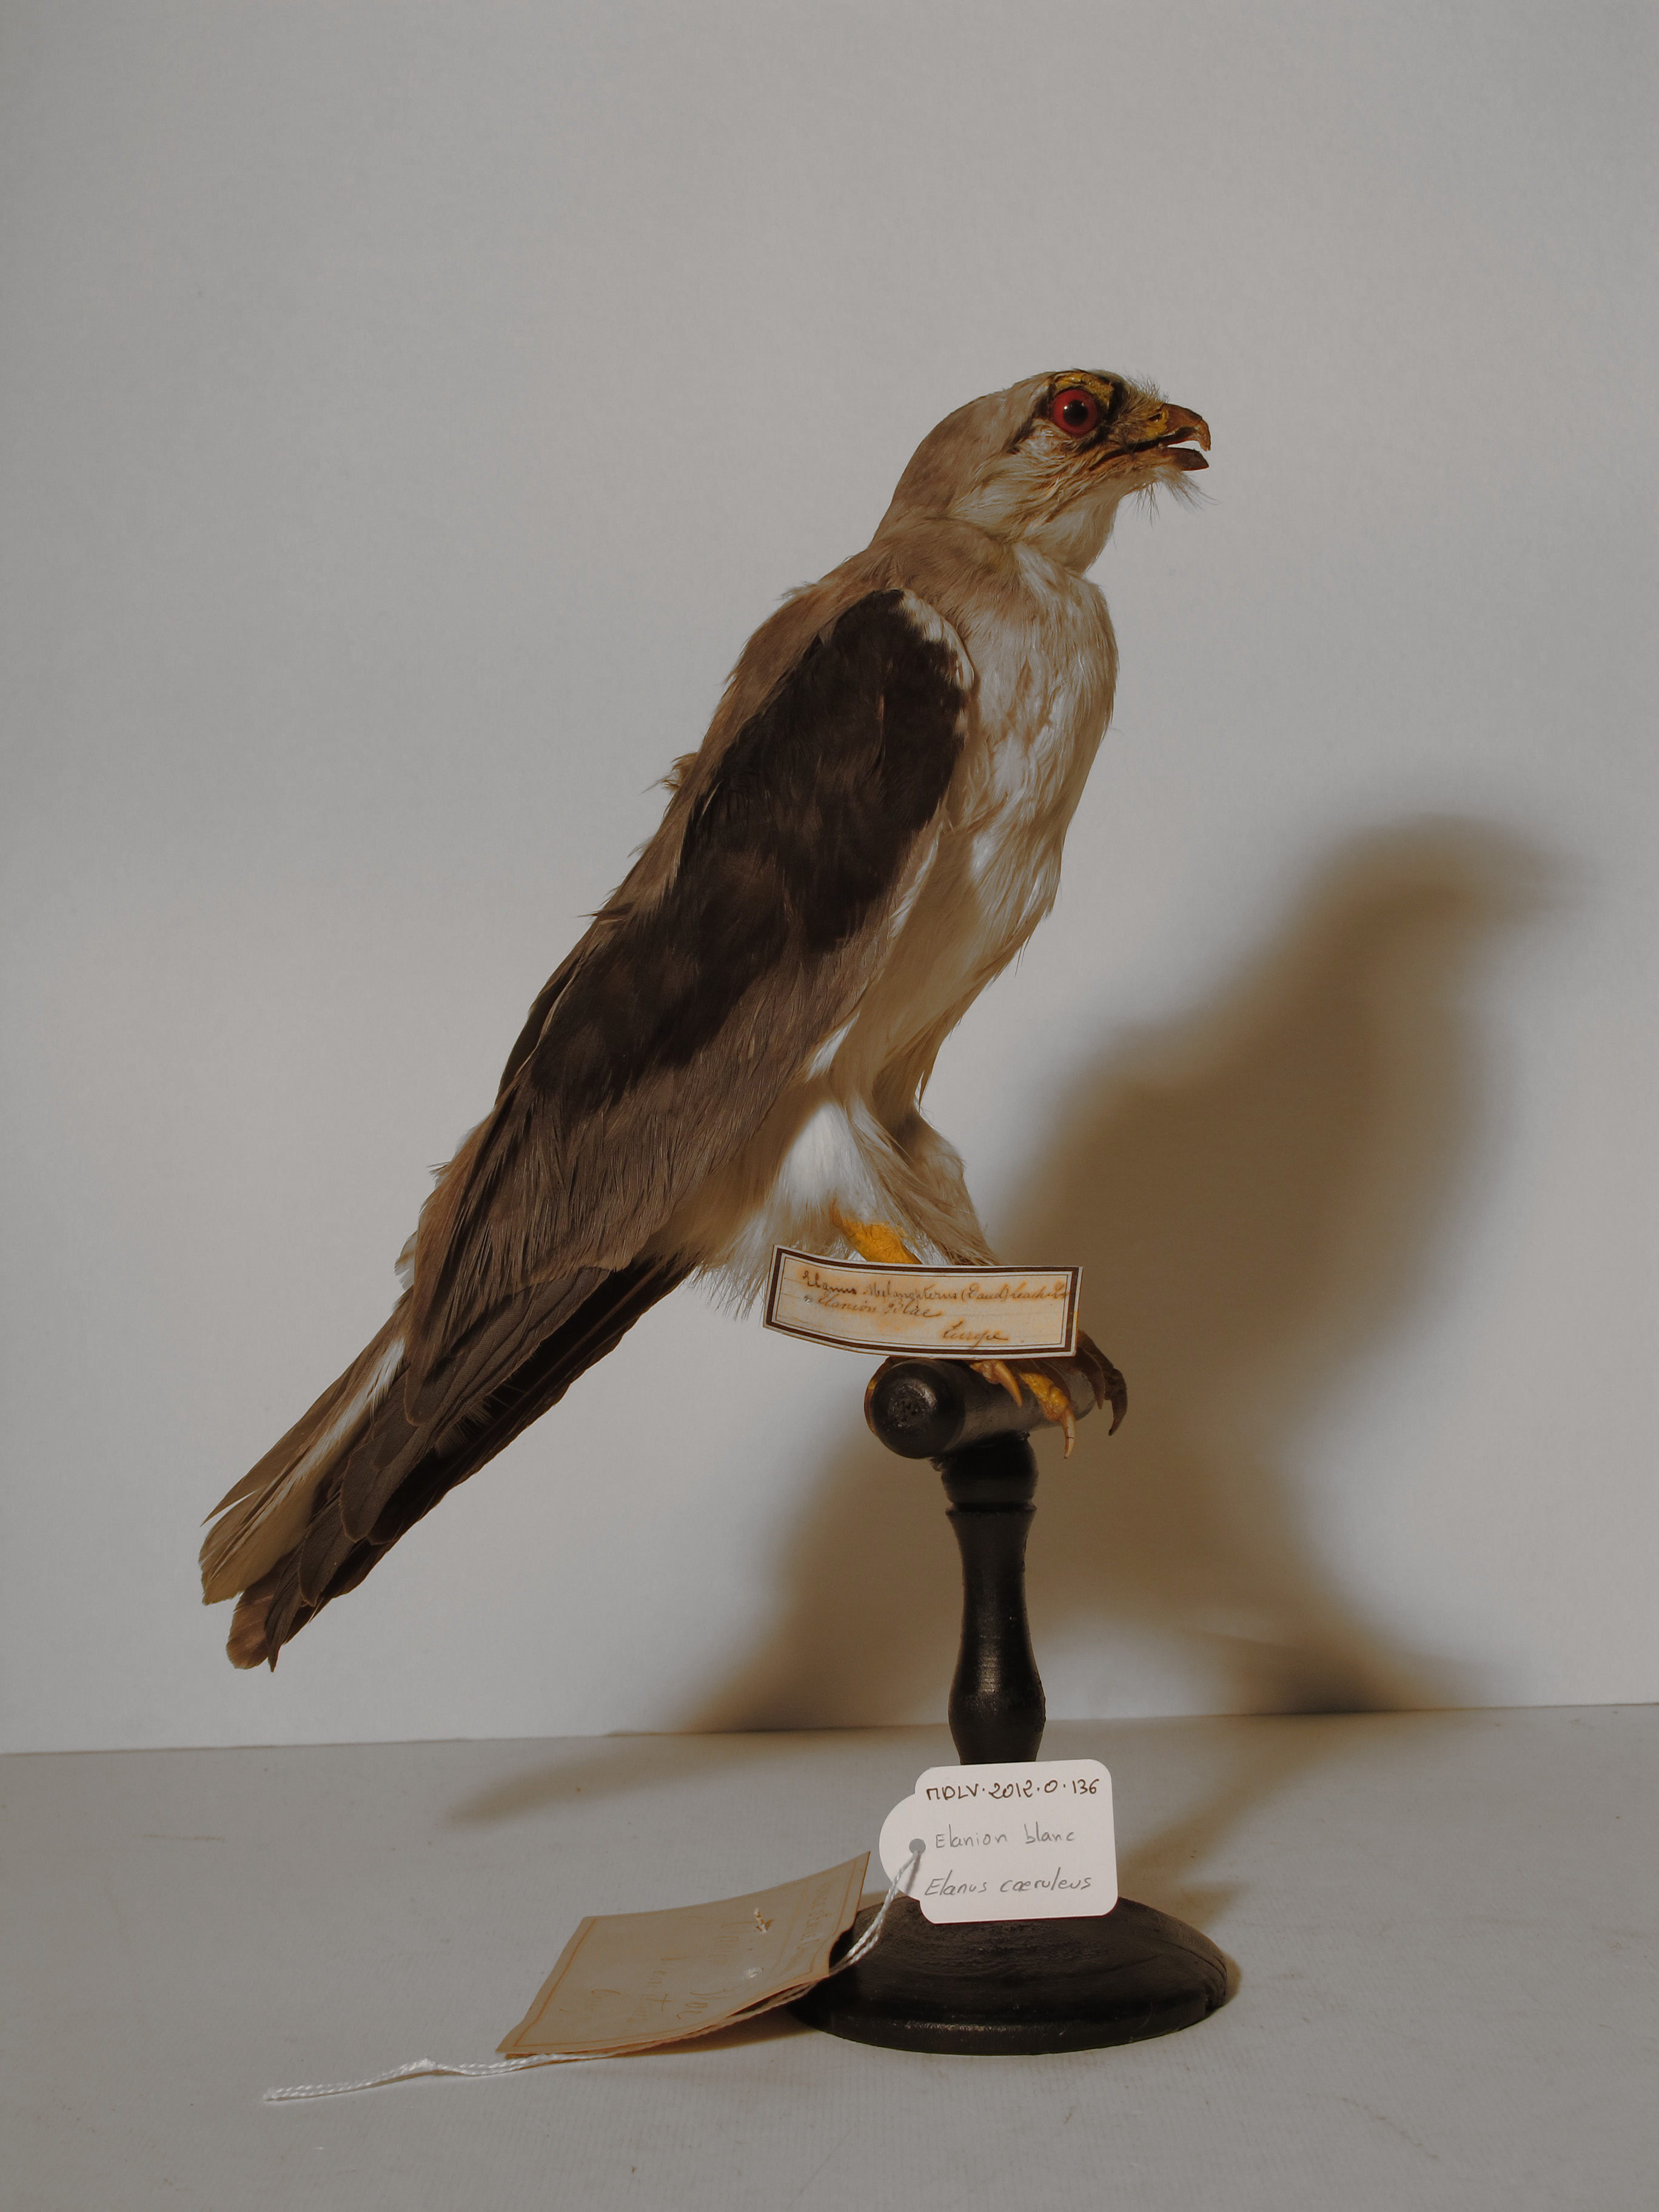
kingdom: Animalia
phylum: Chordata
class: Aves
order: Accipitriformes
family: Accipitridae
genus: Elanus
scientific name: Elanus caeruleus
